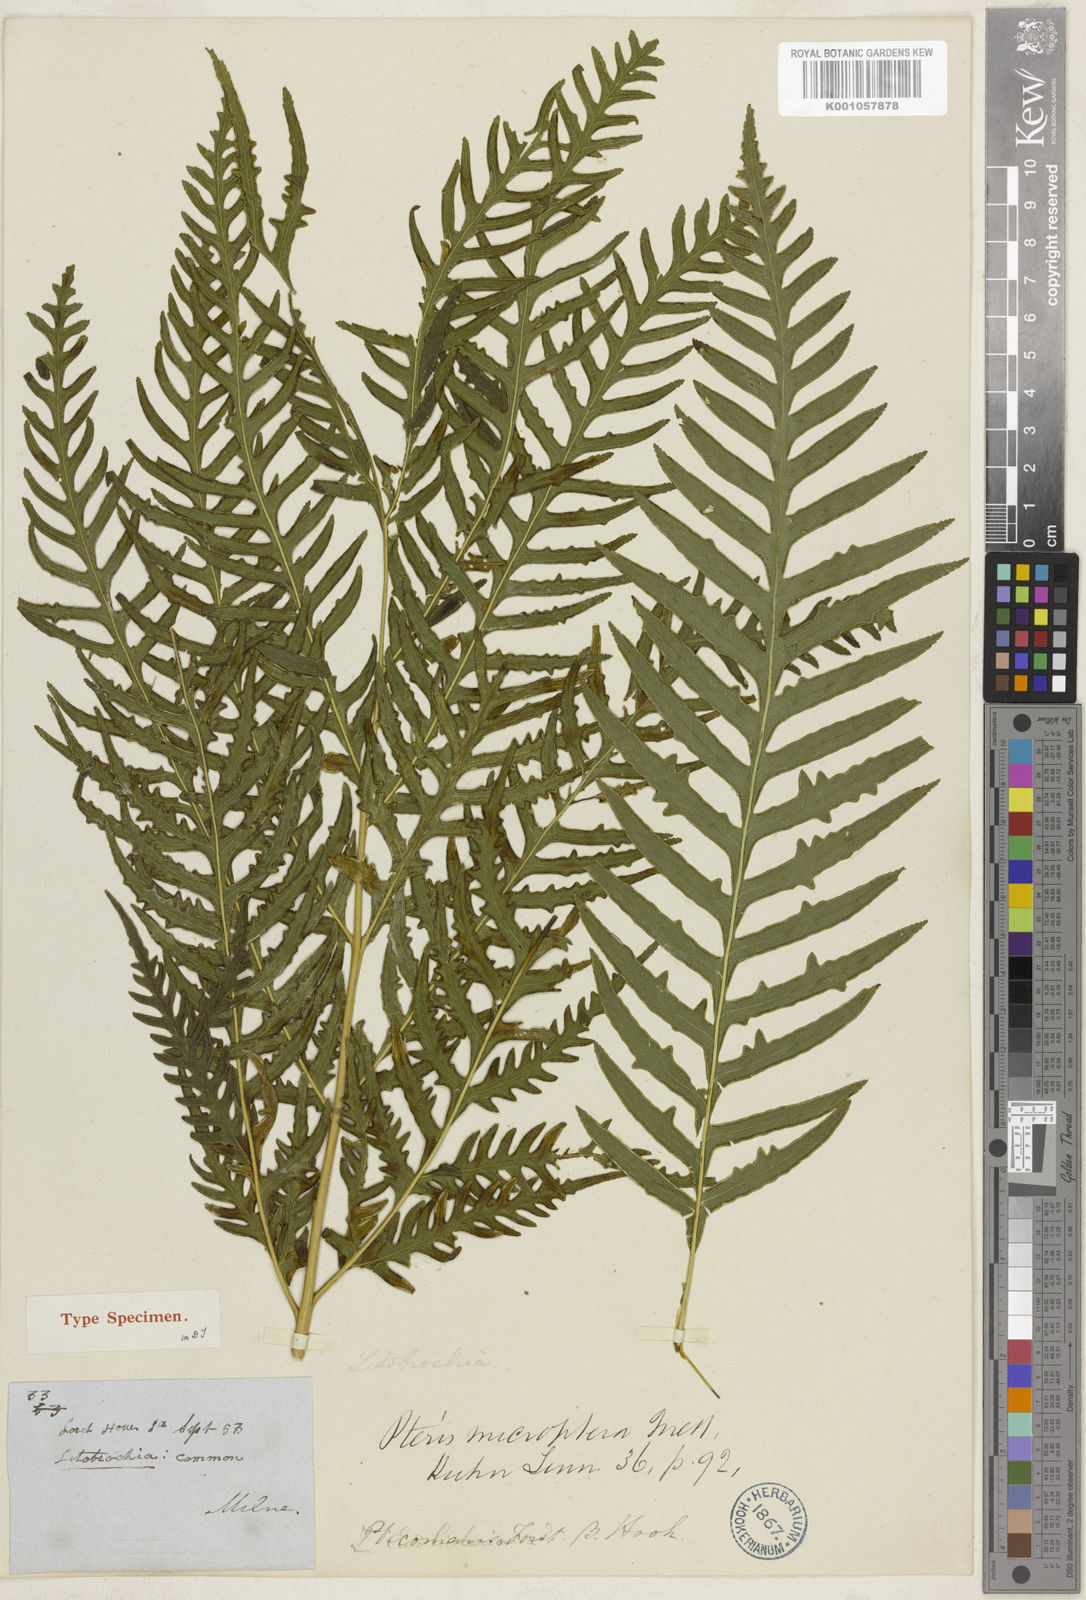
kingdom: Plantae
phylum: Tracheophyta
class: Polypodiopsida
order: Polypodiales
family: Pteridaceae
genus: Pteris
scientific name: Pteris microptera
